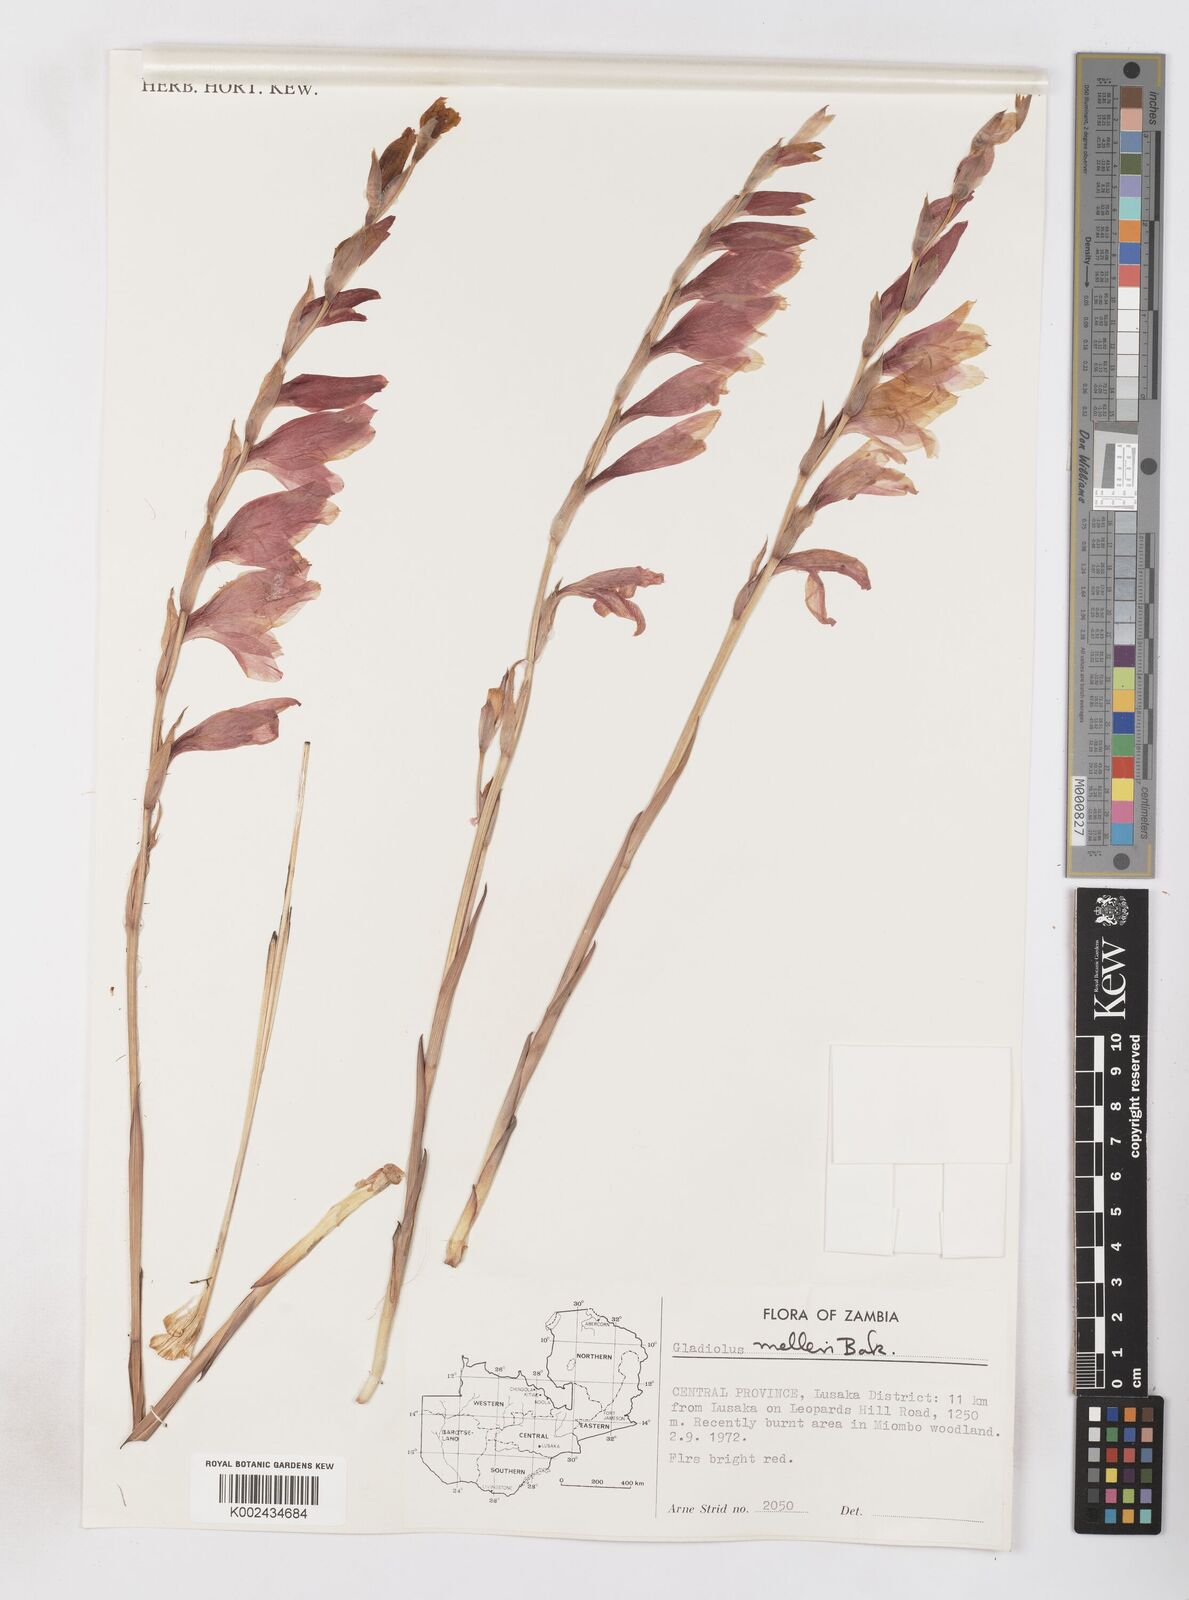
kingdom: Plantae
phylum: Tracheophyta
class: Liliopsida
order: Asparagales
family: Iridaceae
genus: Gladiolus
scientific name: Gladiolus melleri
